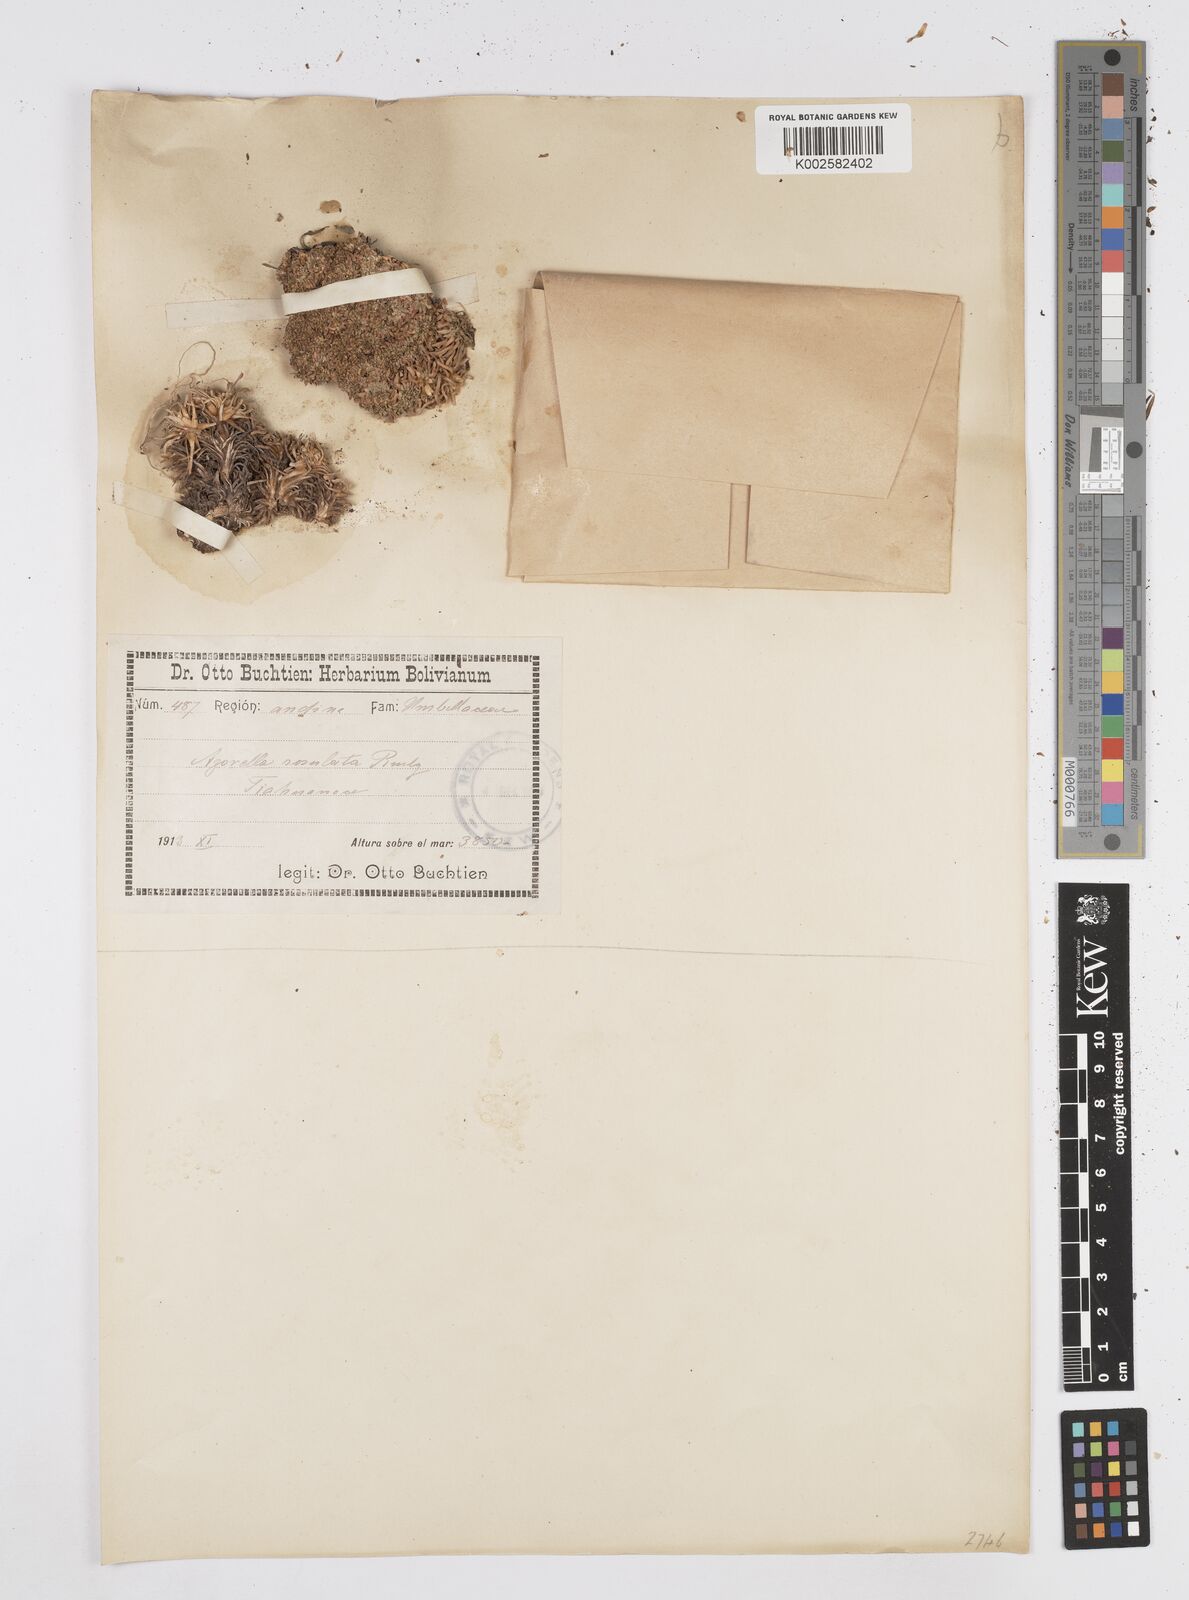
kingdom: Plantae
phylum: Tracheophyta
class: Magnoliopsida
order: Apiales
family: Apiaceae
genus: Azorella
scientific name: Azorella diapensioides
